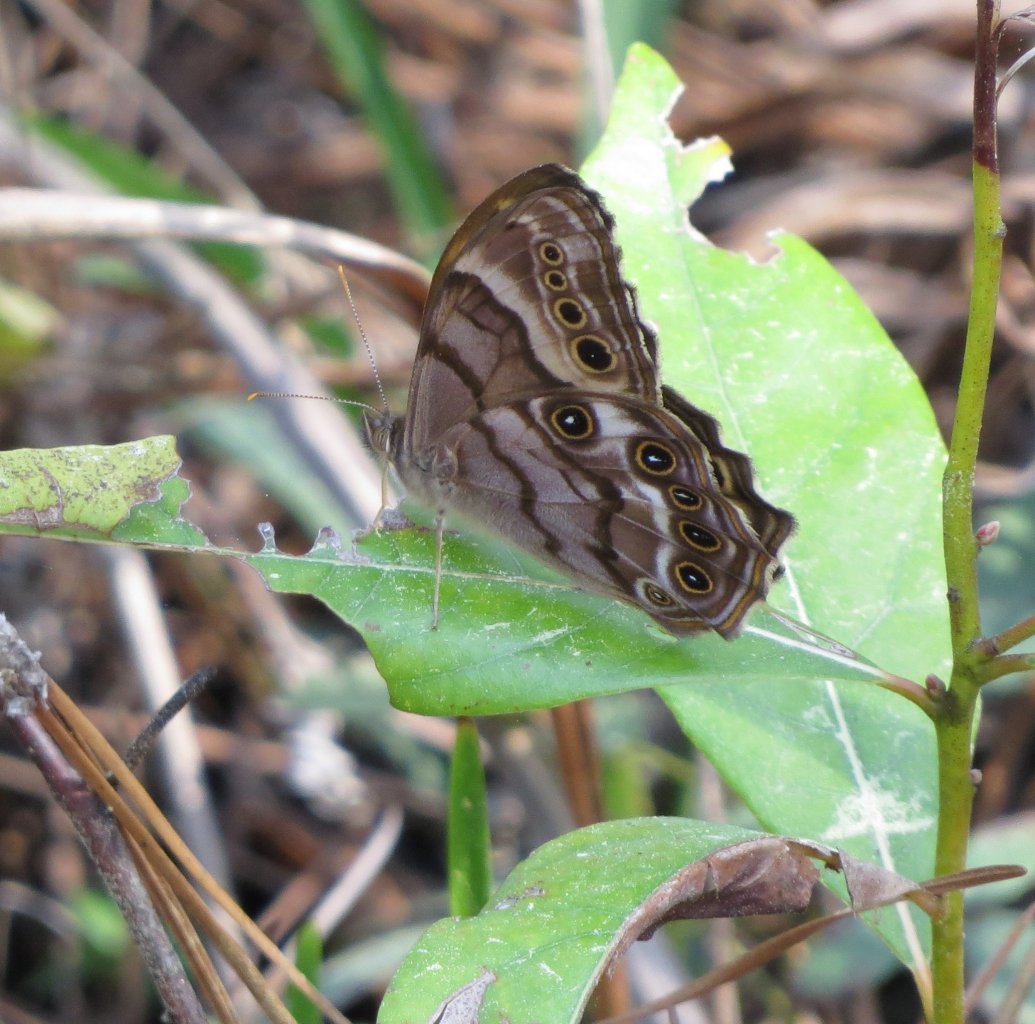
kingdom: Animalia
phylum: Arthropoda
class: Insecta
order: Lepidoptera
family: Nymphalidae
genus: Enodia
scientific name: Enodia portlandia
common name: Southern Pearly Eye
